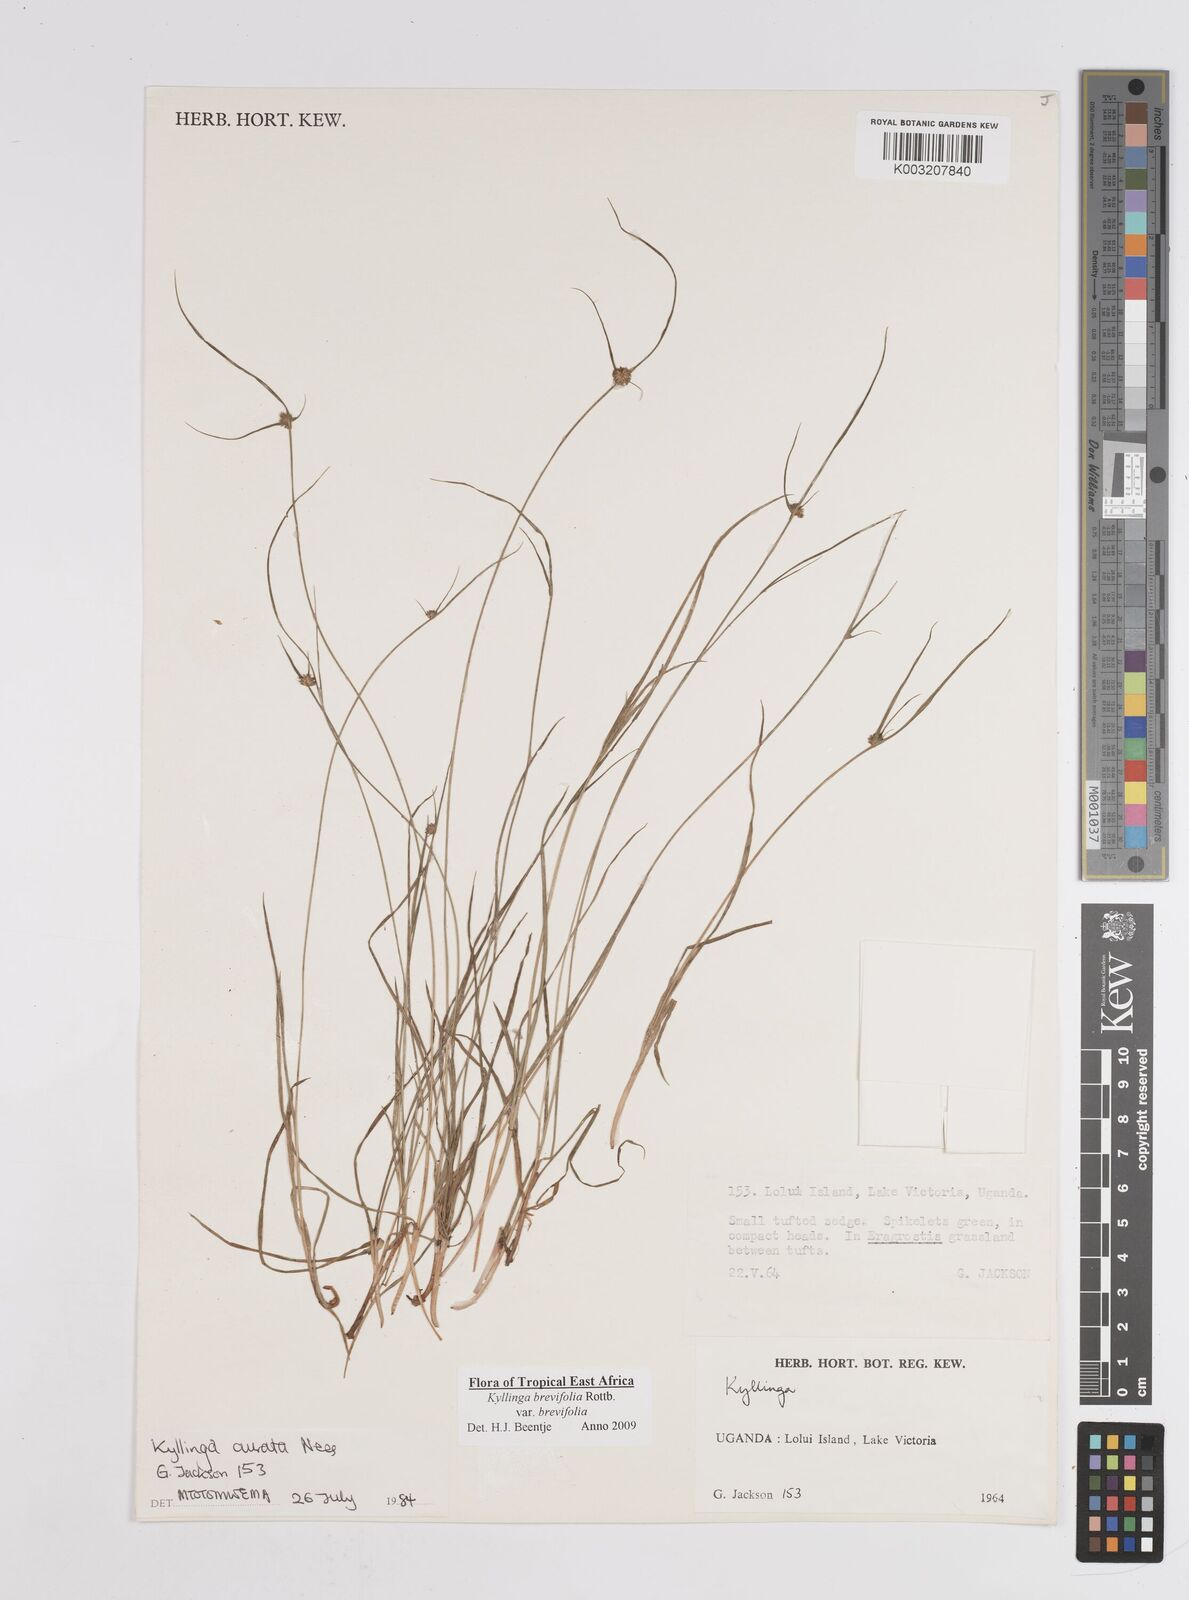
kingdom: Plantae
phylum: Tracheophyta
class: Liliopsida
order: Poales
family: Cyperaceae
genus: Cyperus
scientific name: Cyperus erectus
